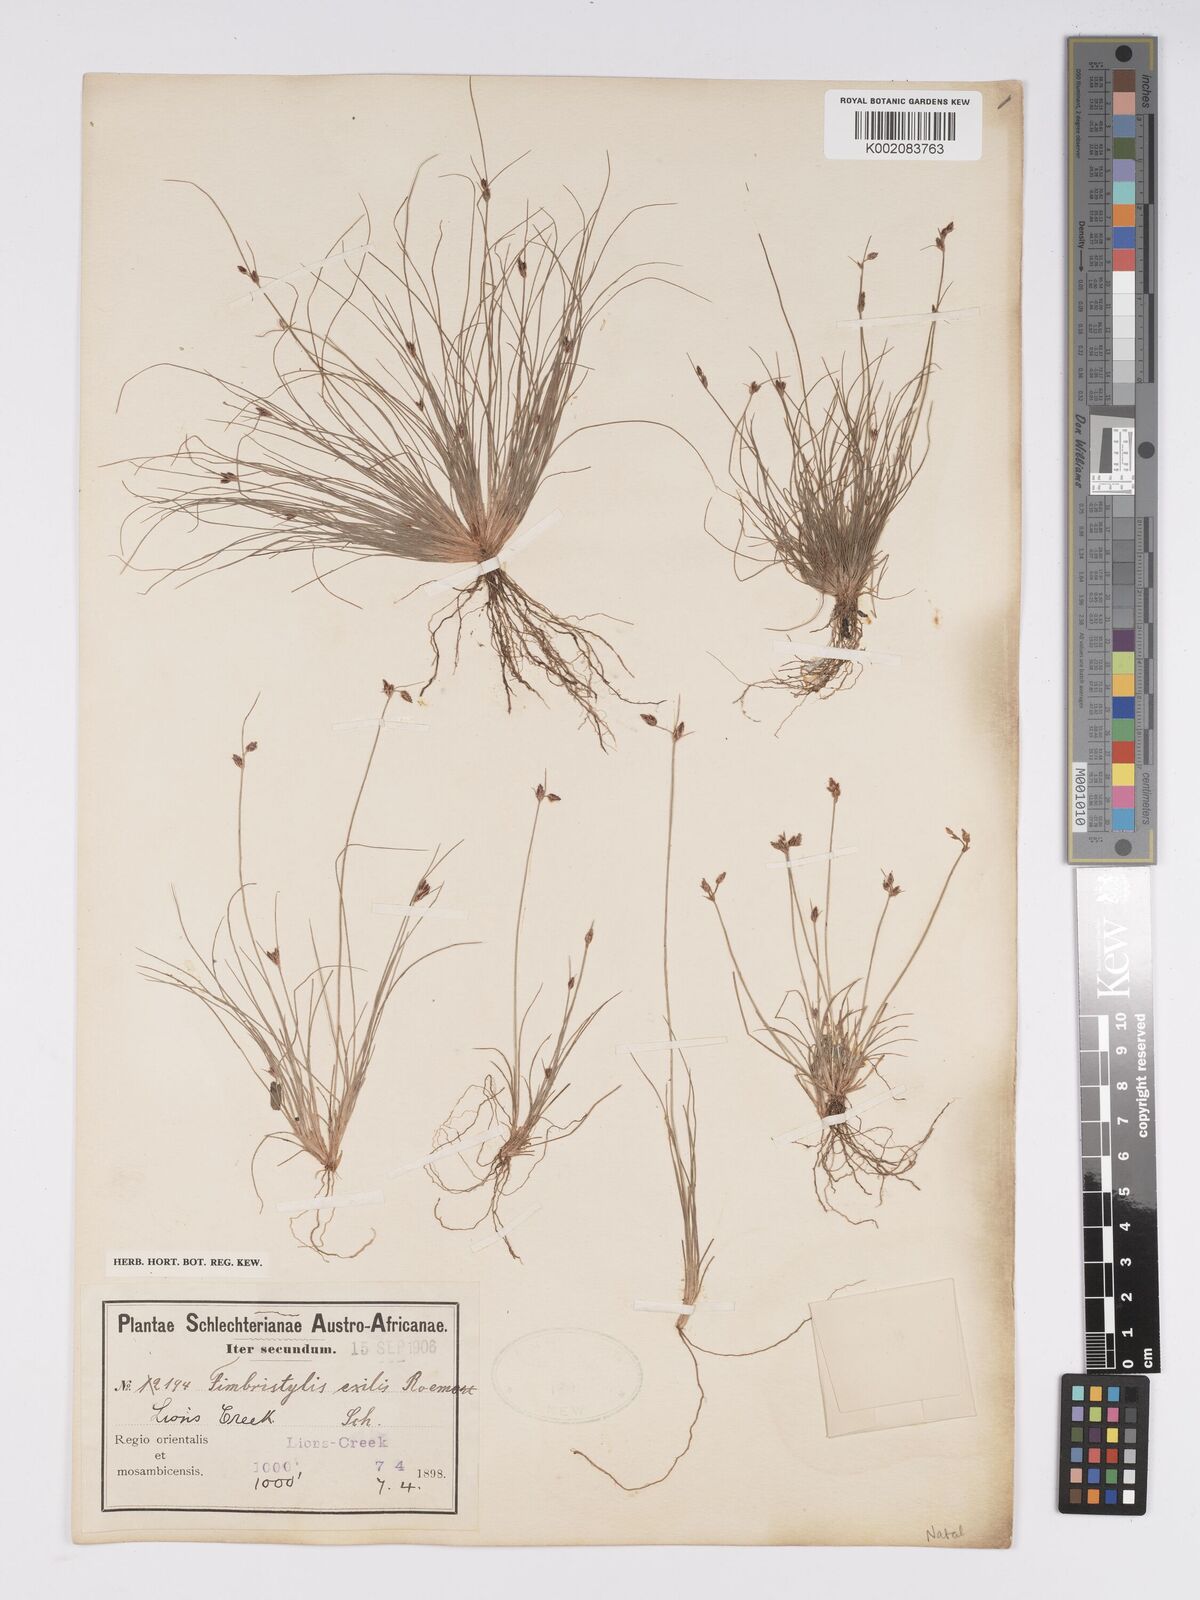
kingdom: Plantae
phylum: Tracheophyta
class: Liliopsida
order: Poales
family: Cyperaceae
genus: Bulbostylis
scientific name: Bulbostylis hispidula
